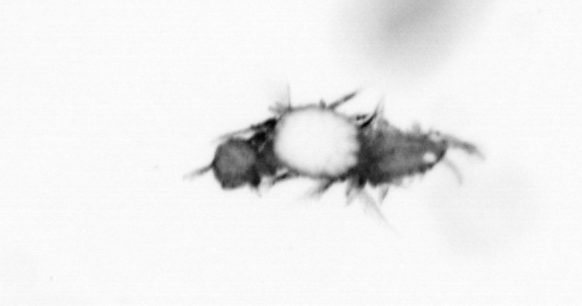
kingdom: Animalia
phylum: Annelida
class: Polychaeta
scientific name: Polychaeta
